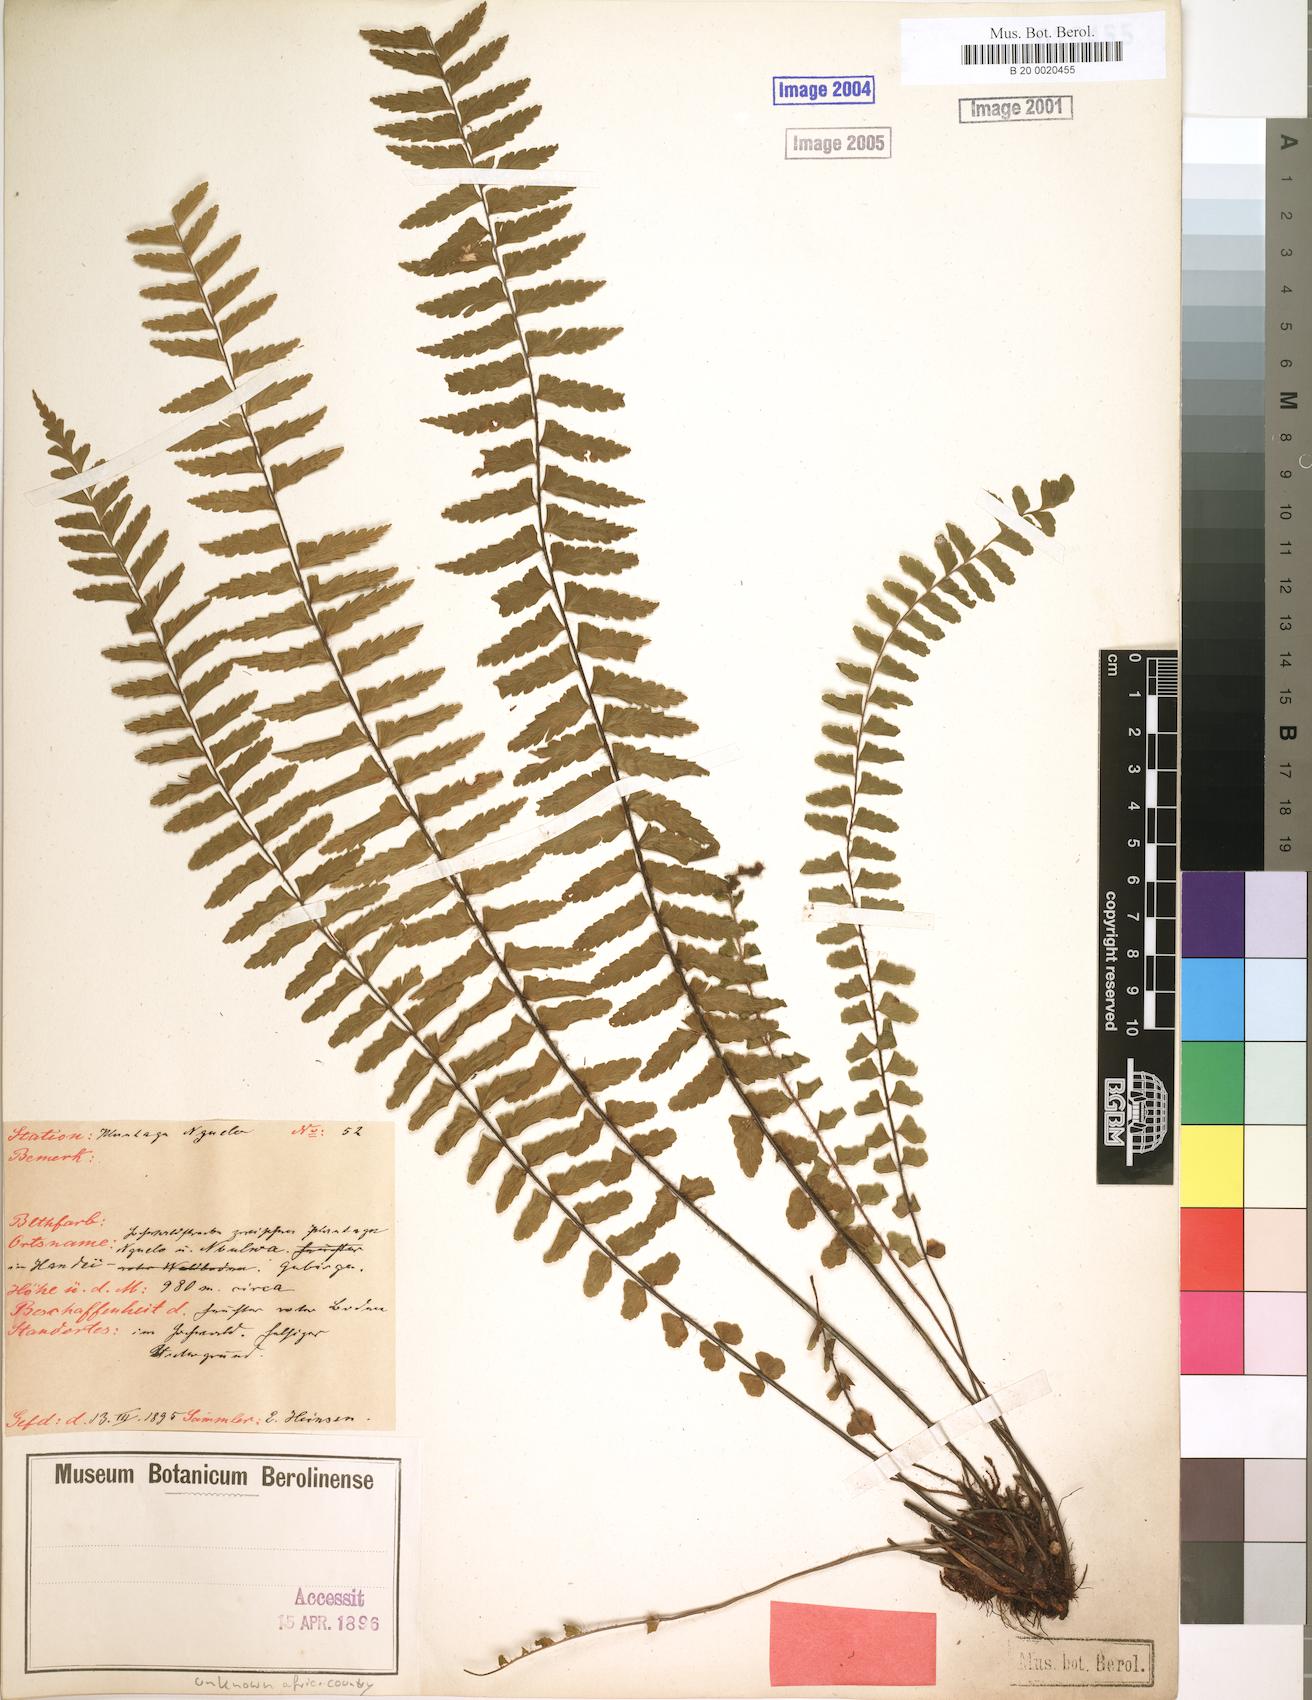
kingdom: Plantae
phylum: Tracheophyta
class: Polypodiopsida
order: Polypodiales
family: Aspleniaceae
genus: Asplenium
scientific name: Asplenium
